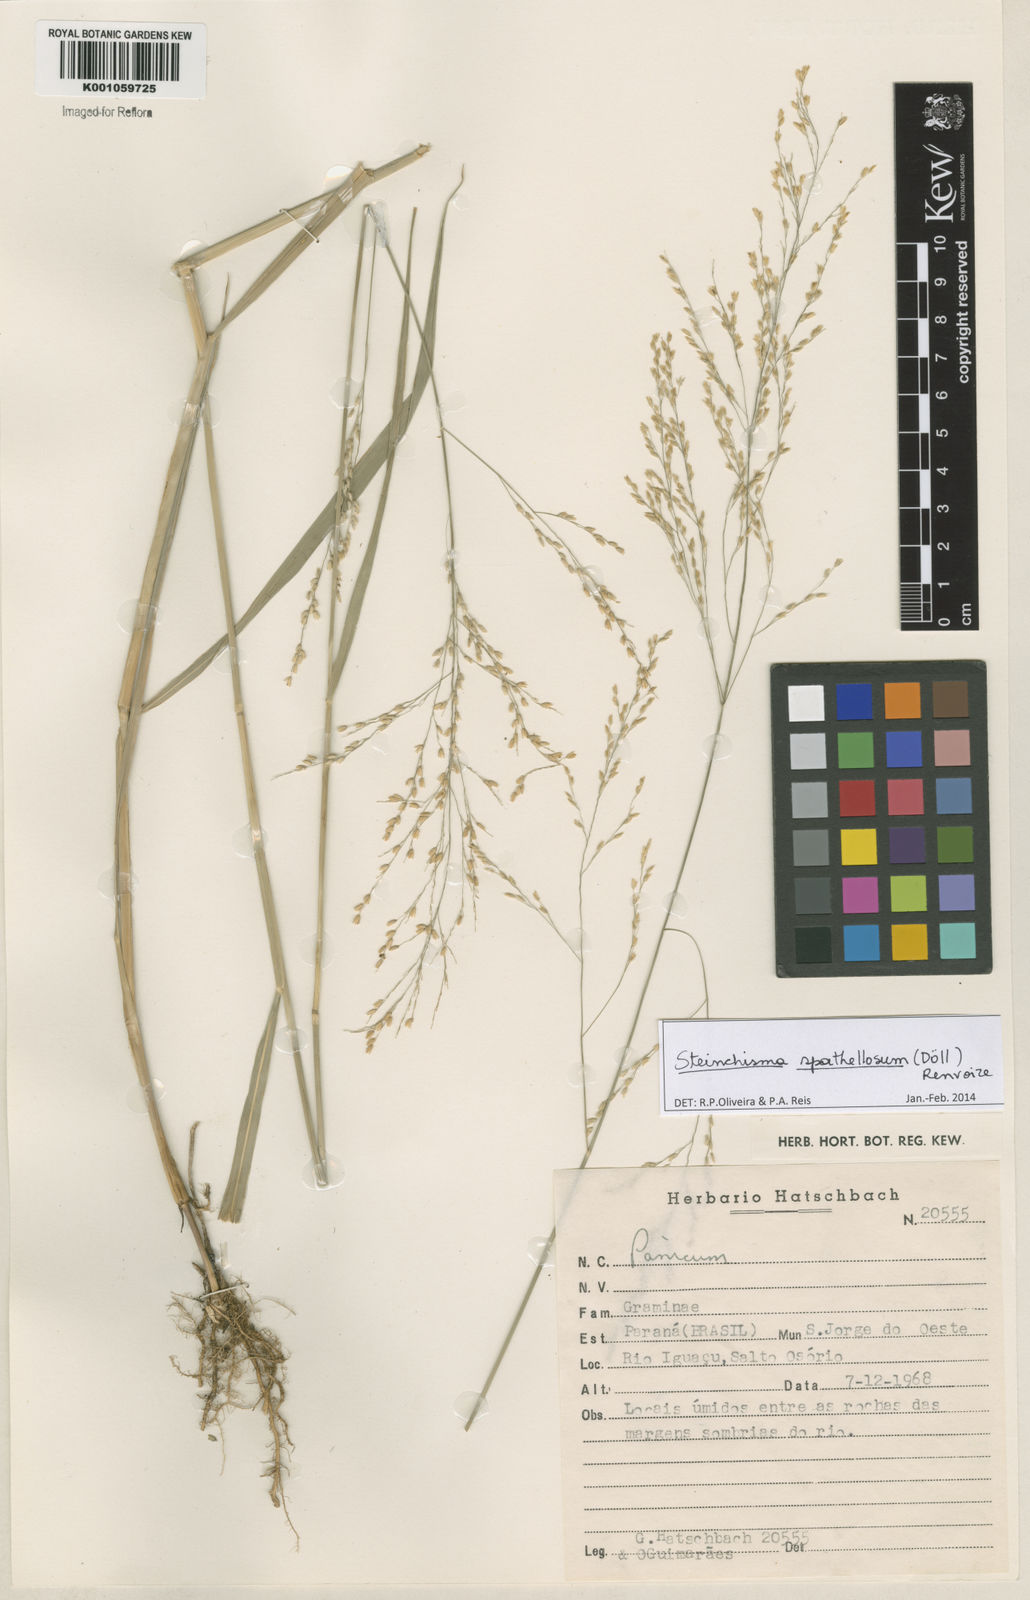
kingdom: Plantae
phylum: Tracheophyta
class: Liliopsida
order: Poales
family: Poaceae
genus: Steinchisma
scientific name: Steinchisma
